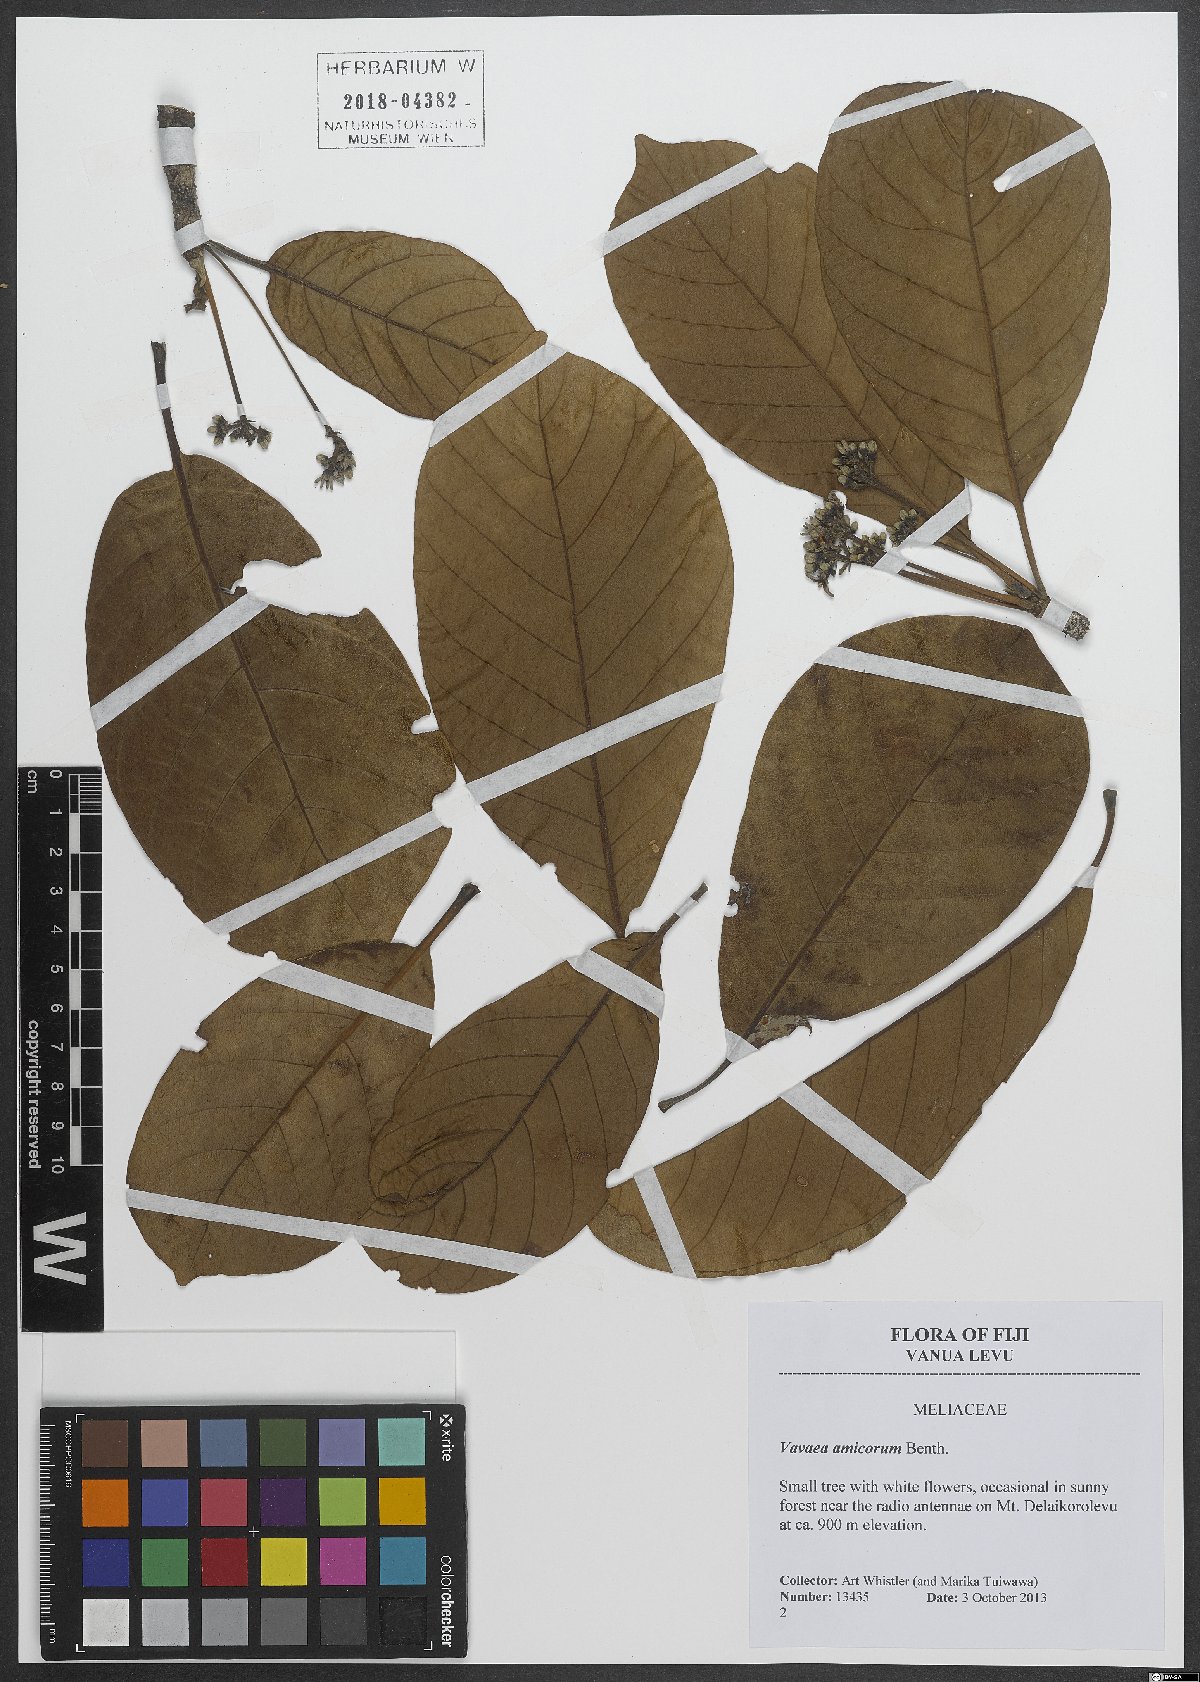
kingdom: Plantae
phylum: Tracheophyta
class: Magnoliopsida
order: Sapindales
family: Meliaceae
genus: Vavaea
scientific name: Vavaea amicorum
